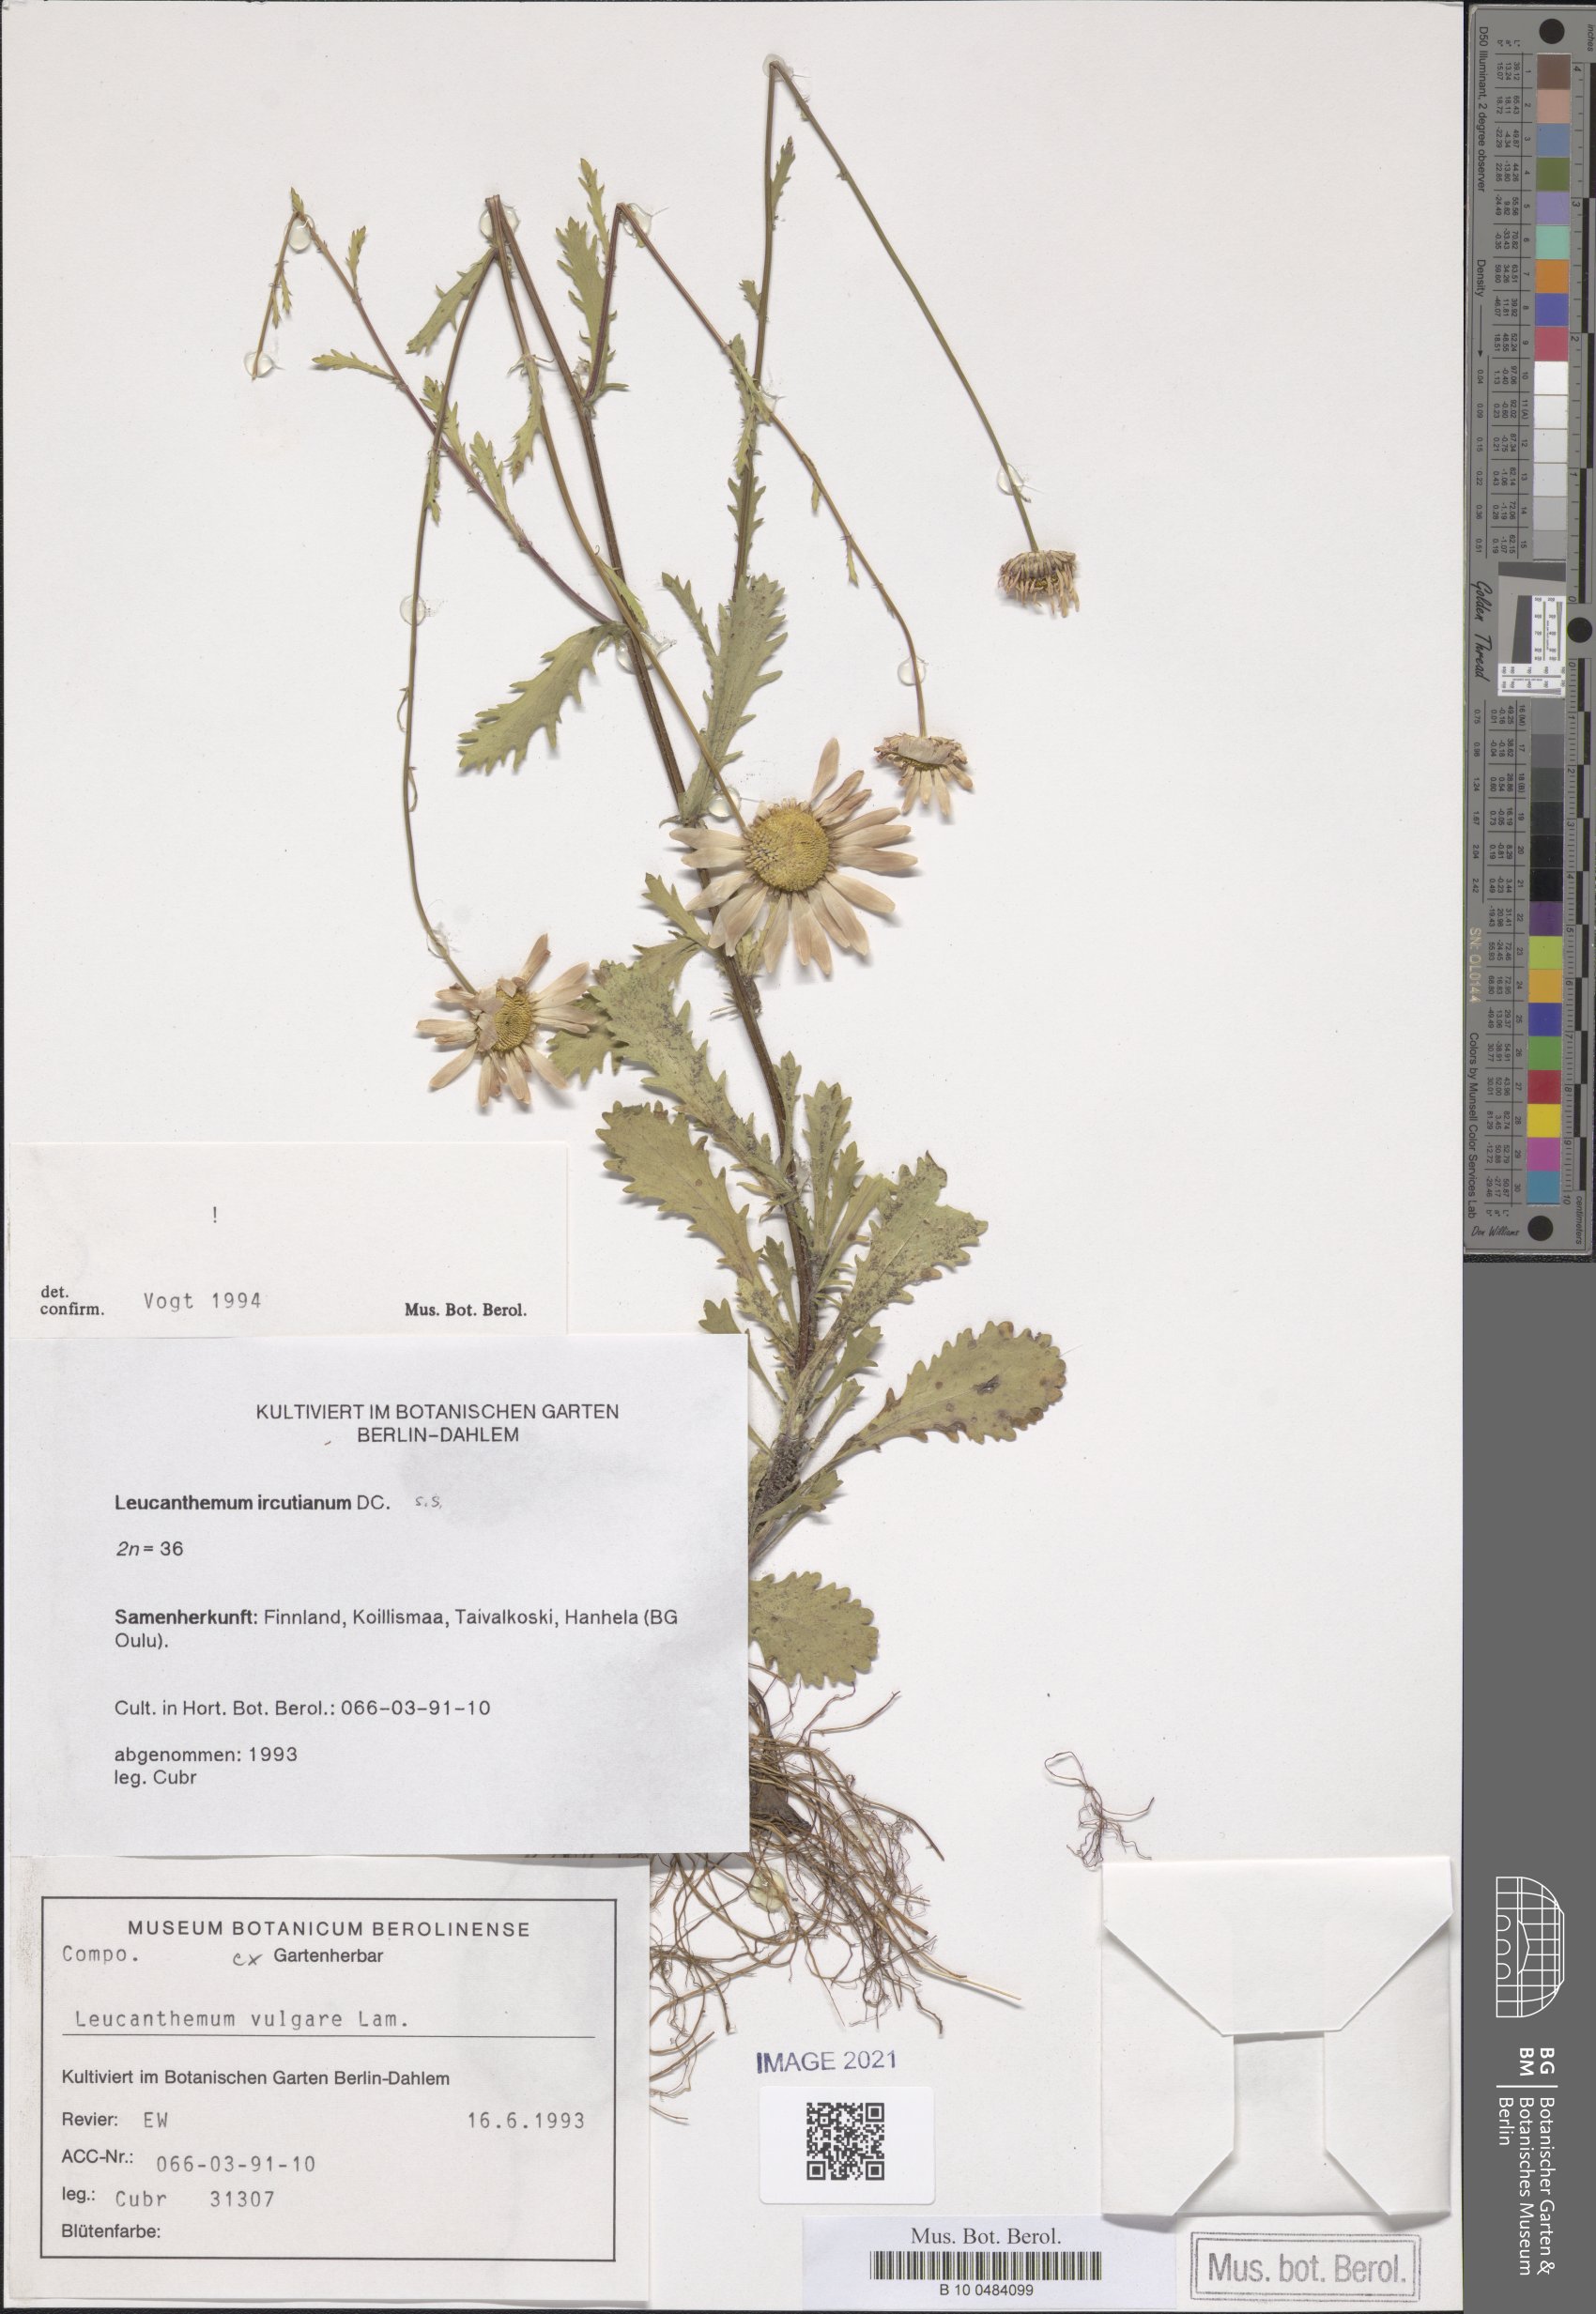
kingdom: Plantae
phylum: Tracheophyta
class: Magnoliopsida
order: Asterales
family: Asteraceae
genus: Leucanthemum
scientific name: Leucanthemum ircutianum
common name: Daisy
